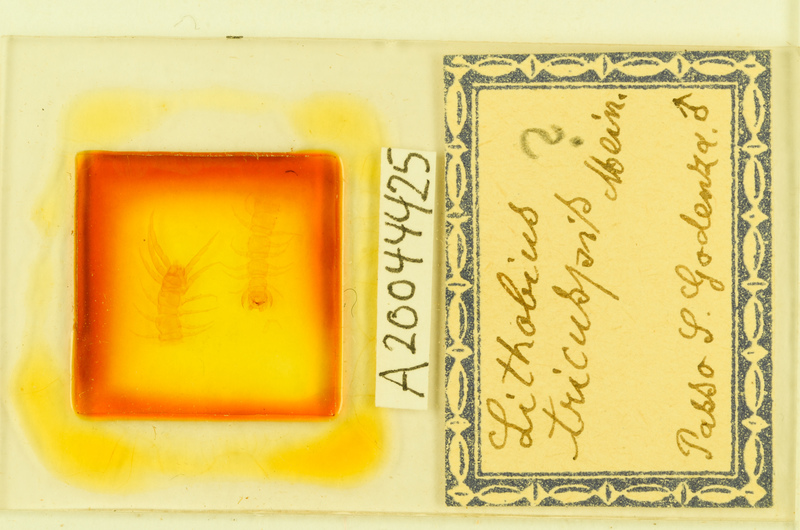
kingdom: Animalia
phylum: Arthropoda
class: Chilopoda
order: Lithobiomorpha
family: Lithobiidae
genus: Lithobius
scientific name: Lithobius tricuspis
